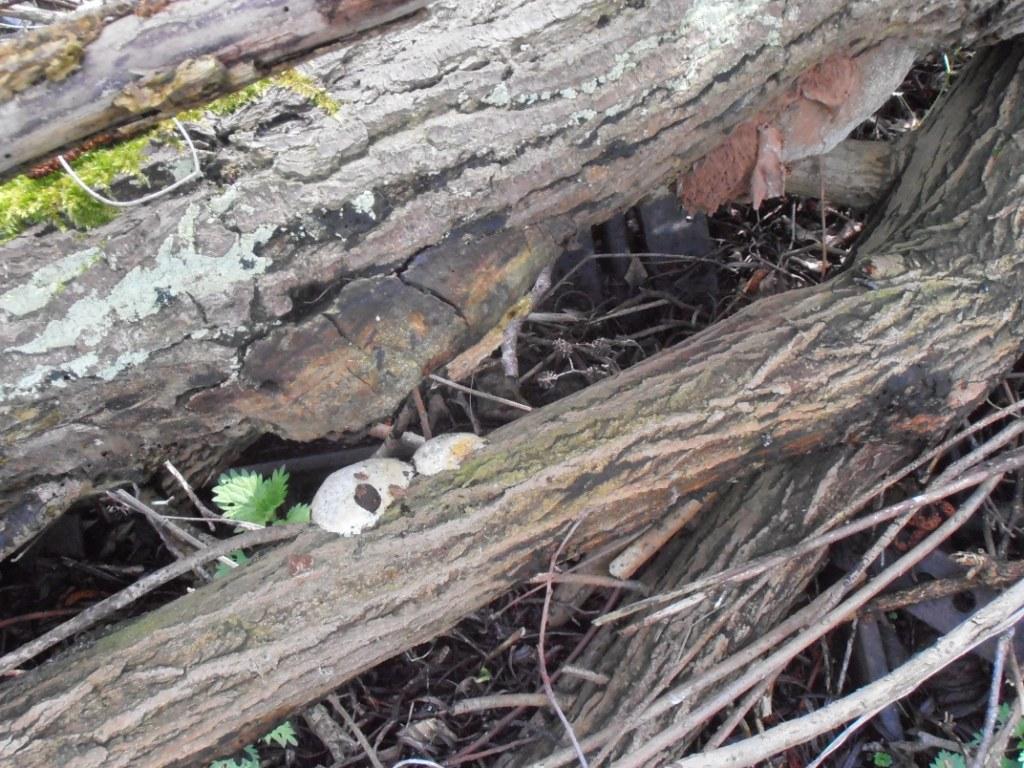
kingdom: Protozoa
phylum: Mycetozoa
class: Myxomycetes
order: Cribrariales
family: Tubiferaceae
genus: Reticularia
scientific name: Reticularia lycoperdon
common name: skinnende støvpude
